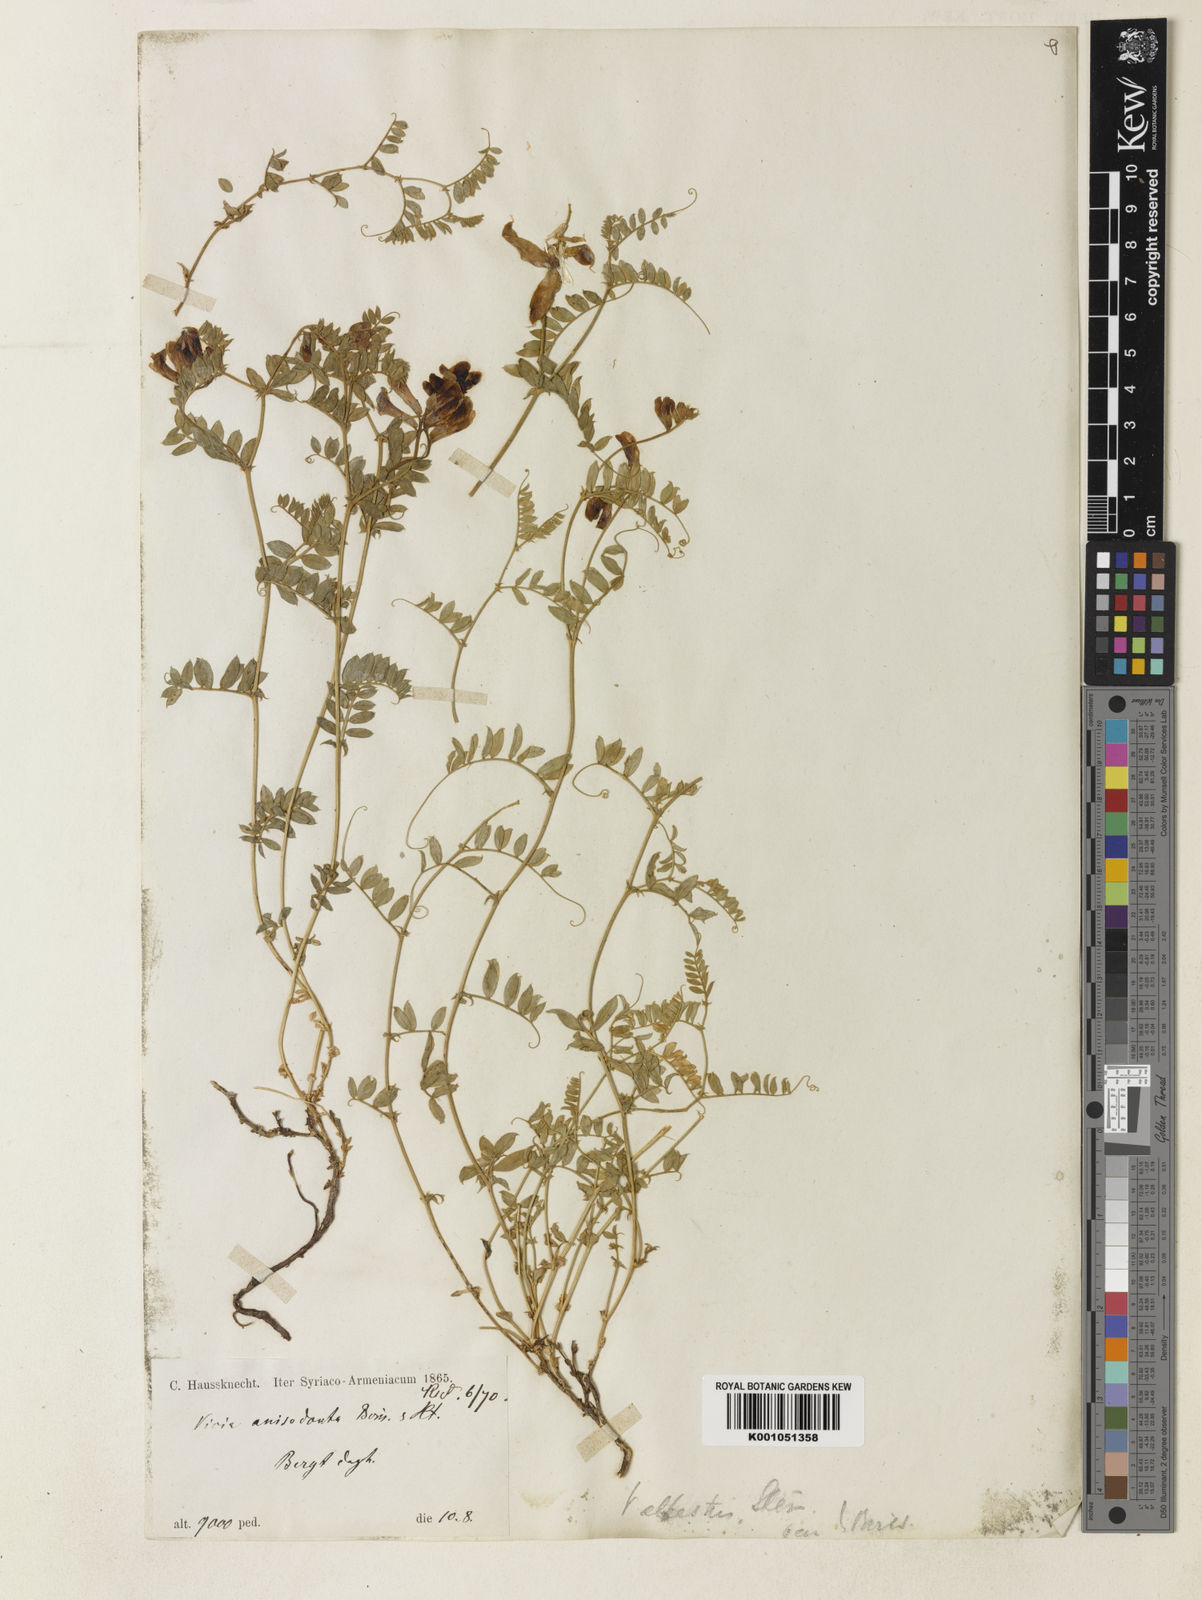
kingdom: Plantae
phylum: Tracheophyta
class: Magnoliopsida
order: Fabales
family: Fabaceae
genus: Vicia
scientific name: Vicia alpestris
